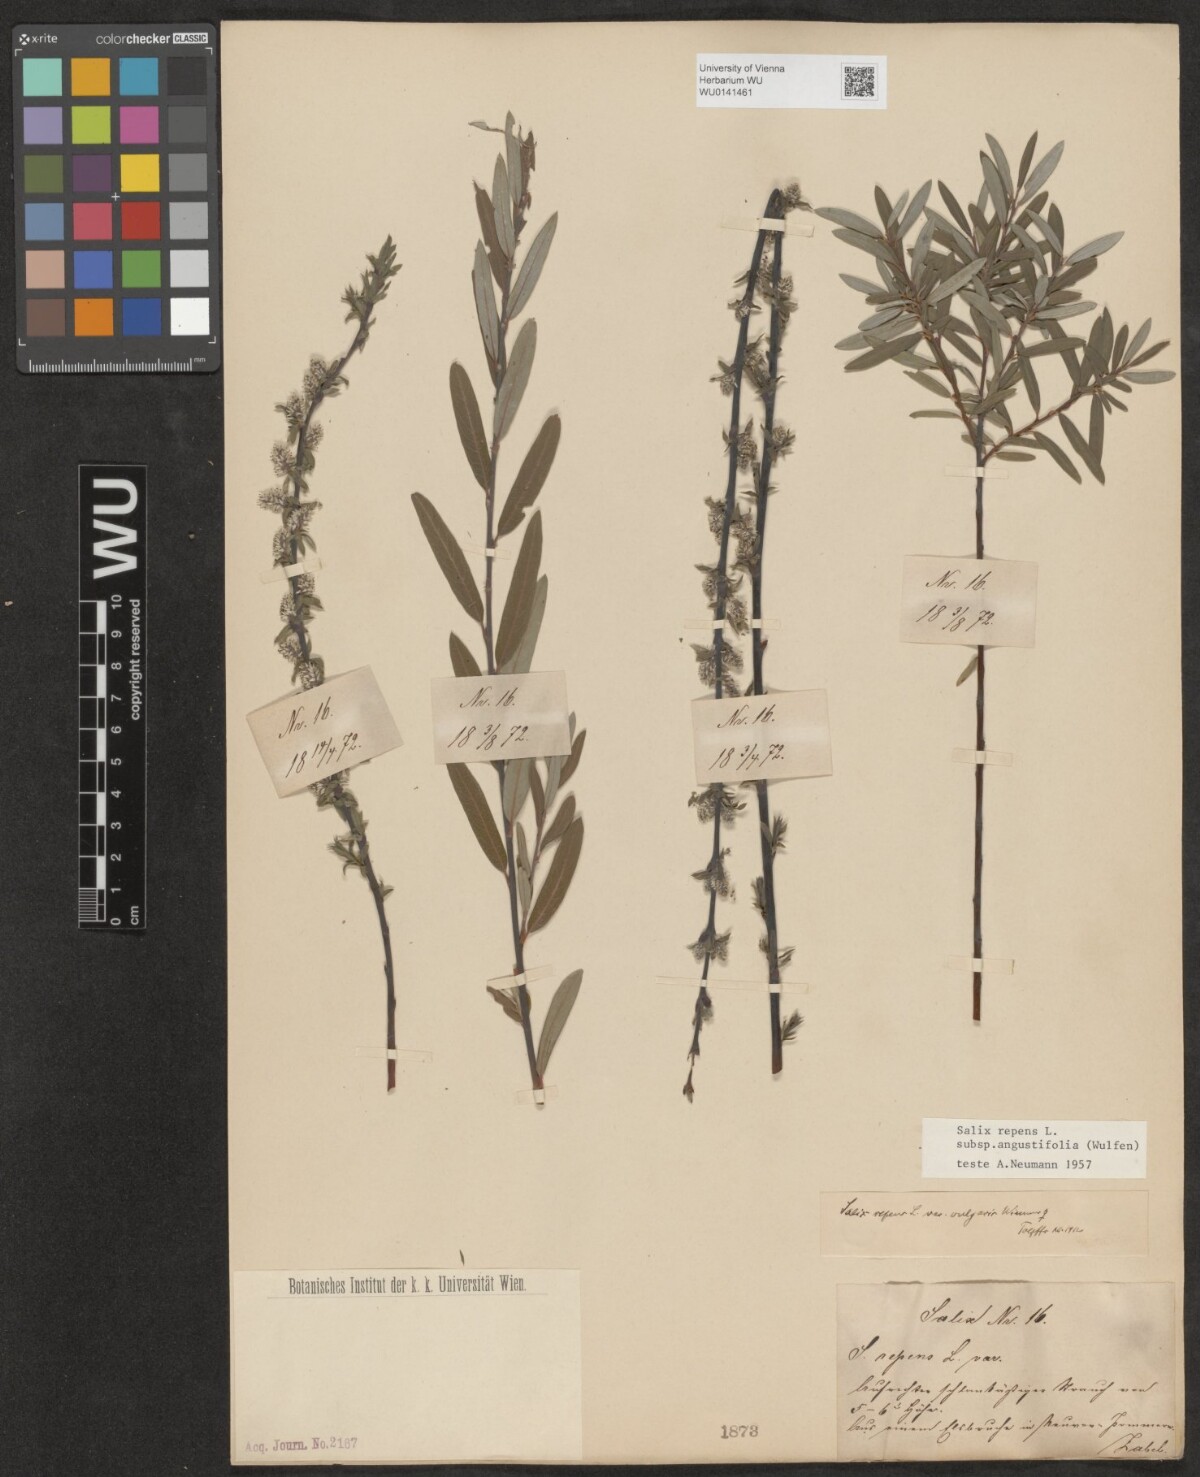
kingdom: Plantae
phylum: Tracheophyta
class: Magnoliopsida
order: Malpighiales
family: Salicaceae
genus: Salix
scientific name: Salix rosmarinifolia
